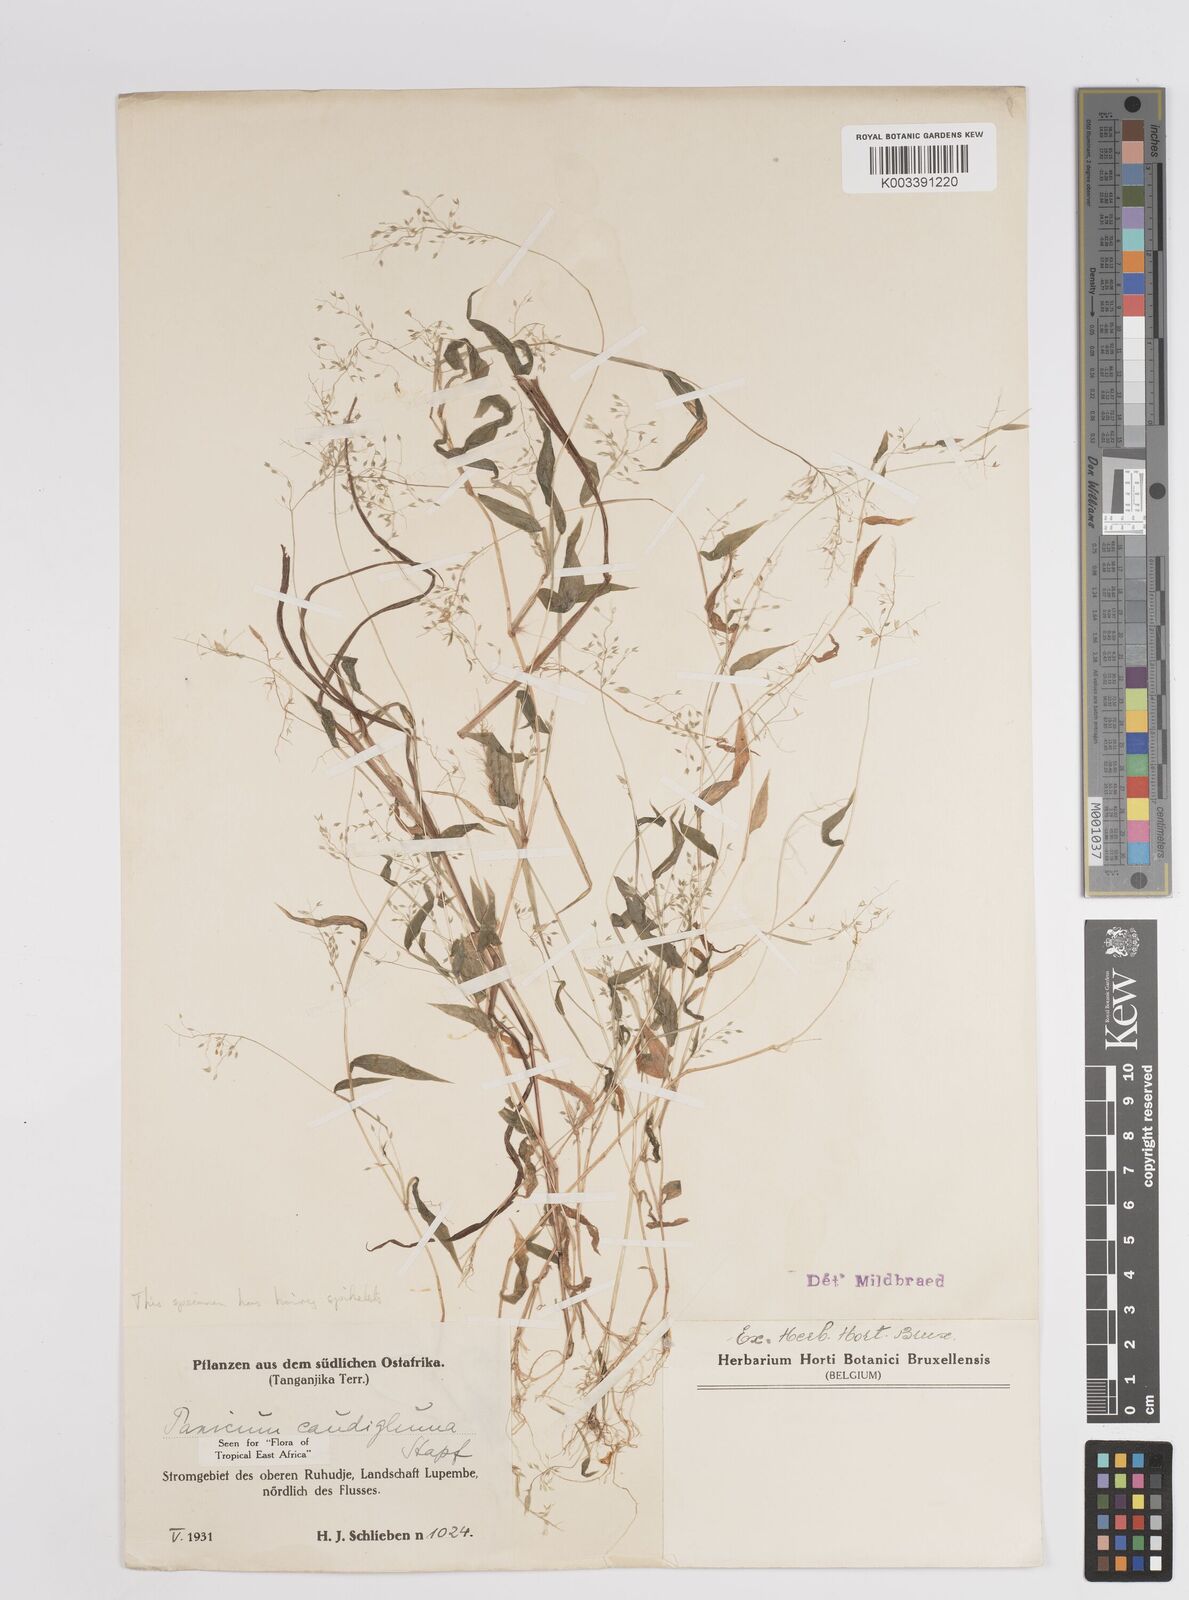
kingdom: Plantae
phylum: Tracheophyta
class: Liliopsida
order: Poales
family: Poaceae
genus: Panicum
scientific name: Panicum delicatulum
